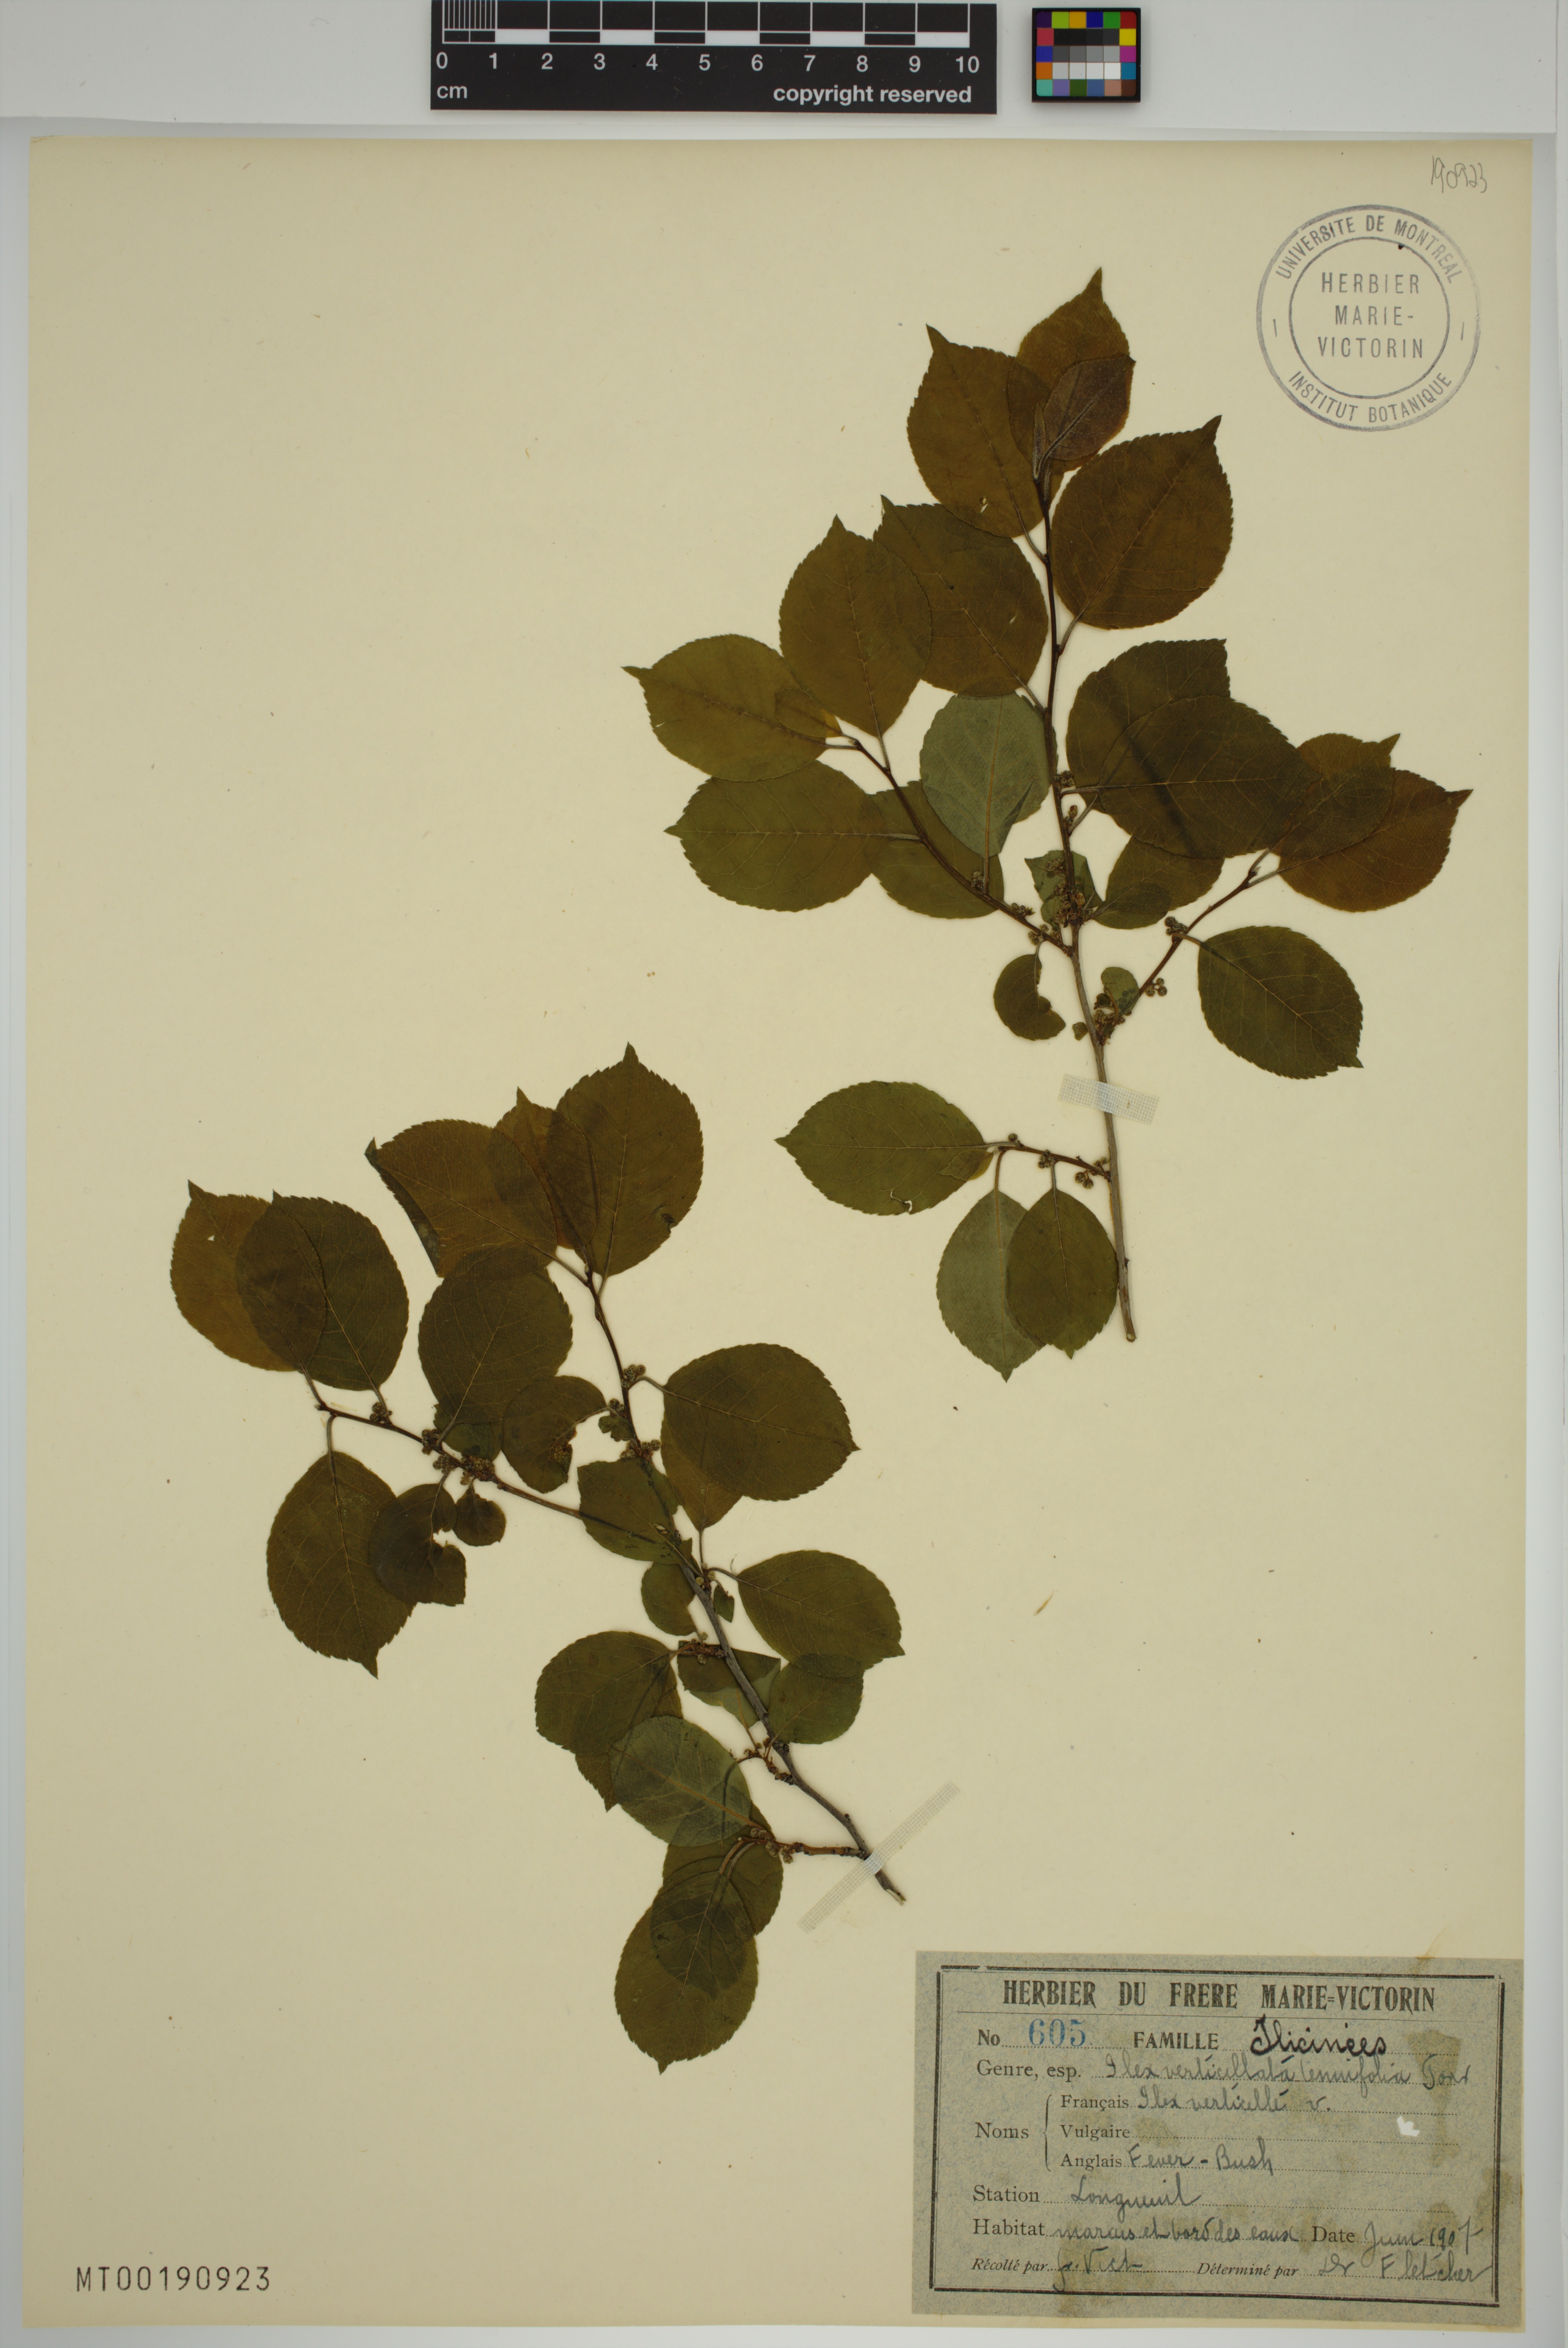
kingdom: Plantae
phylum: Tracheophyta
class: Magnoliopsida
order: Aquifoliales
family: Aquifoliaceae
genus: Ilex
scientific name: Ilex verticillata
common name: Virginia winterberry
